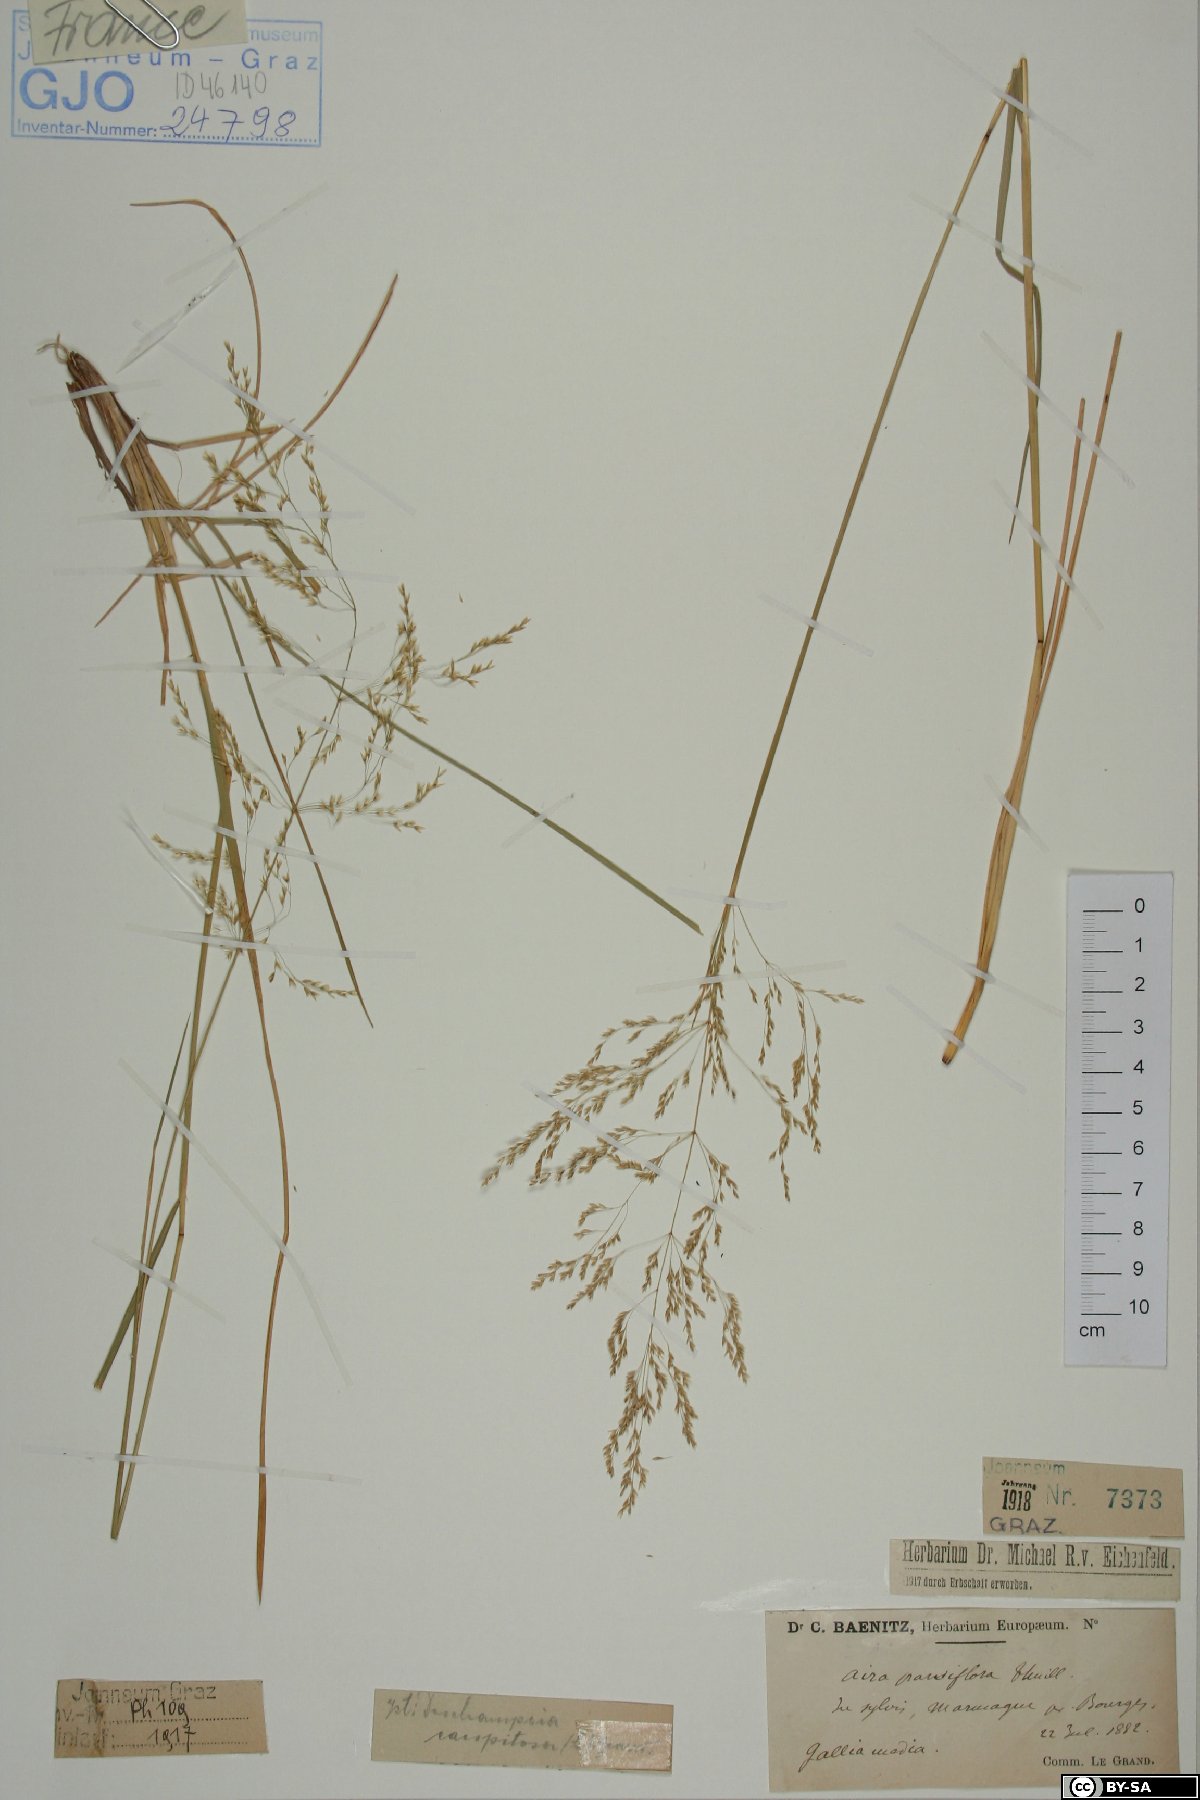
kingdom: Plantae
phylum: Tracheophyta
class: Liliopsida
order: Poales
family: Poaceae
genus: Deschampsia
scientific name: Deschampsia cespitosa
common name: Tufted hair-grass
